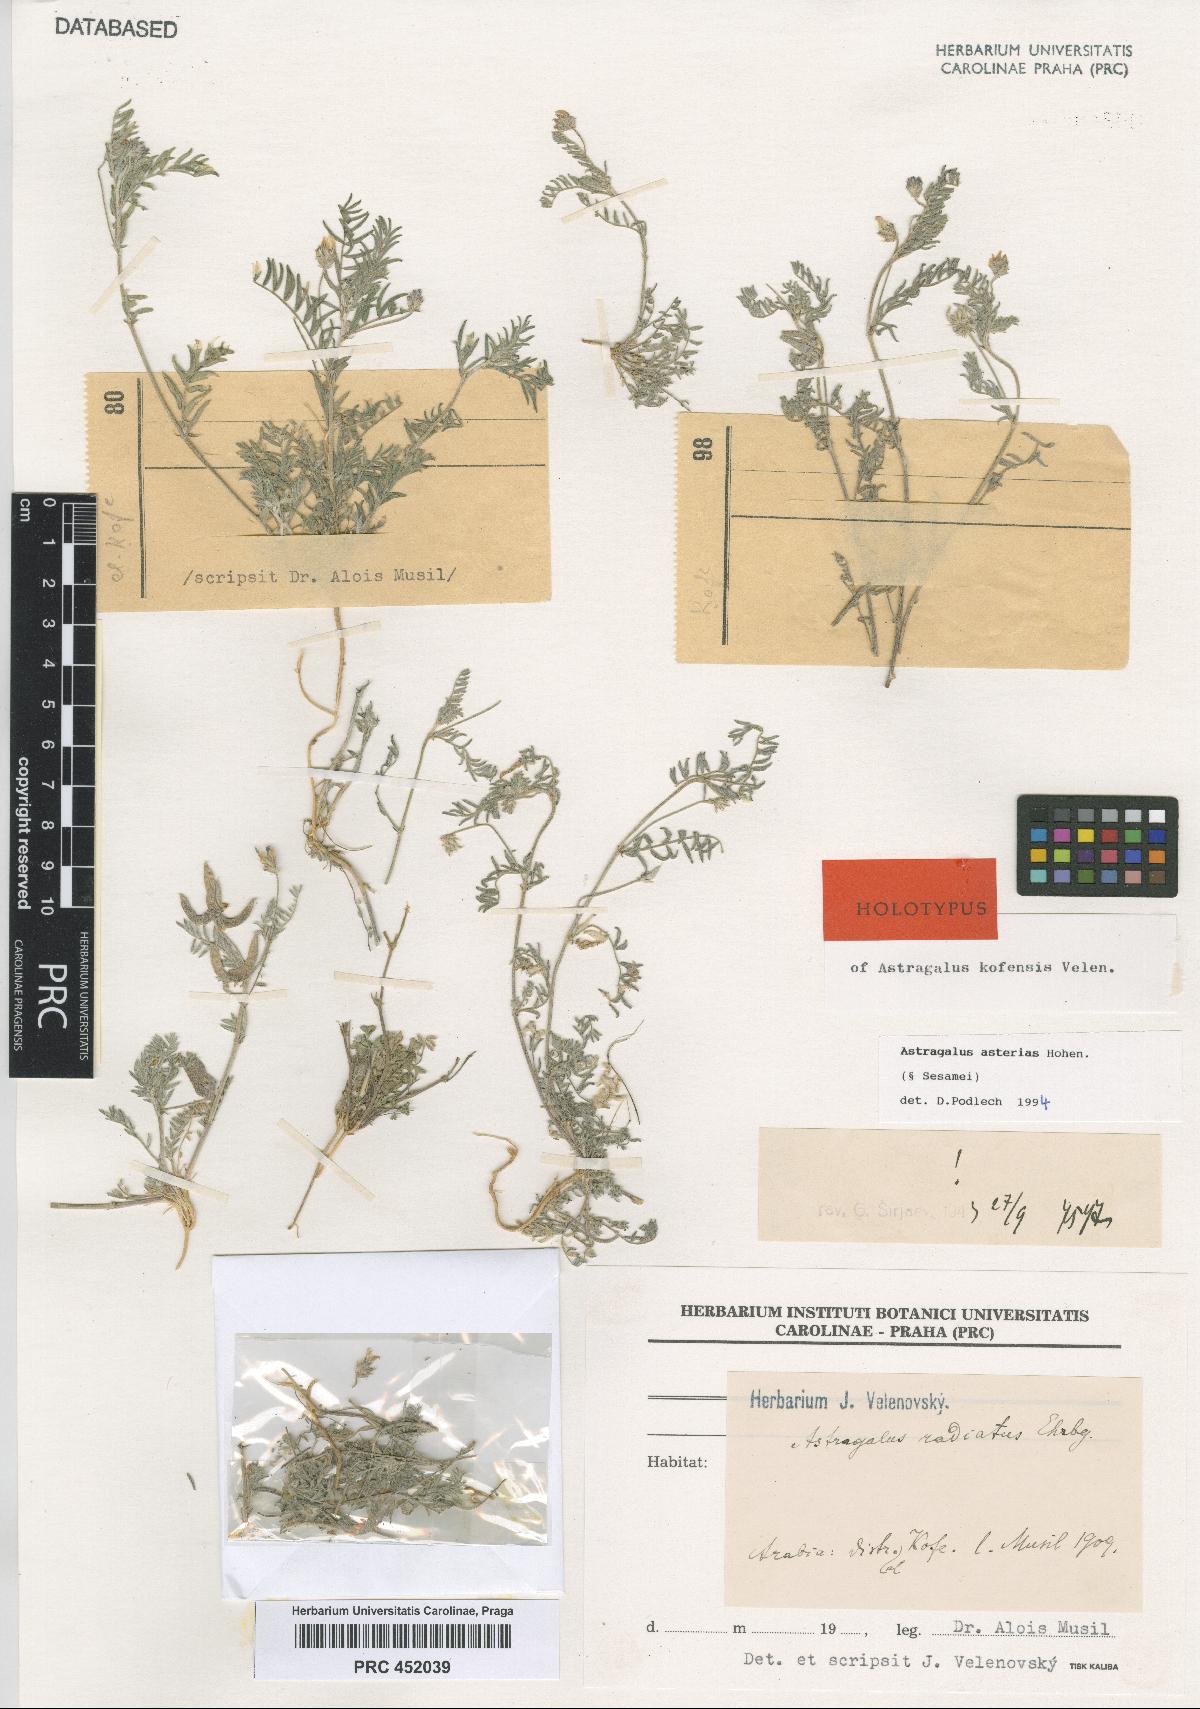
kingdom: Plantae
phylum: Tracheophyta
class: Magnoliopsida
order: Fabales
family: Fabaceae
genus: Astragalus
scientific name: Astragalus asterias
